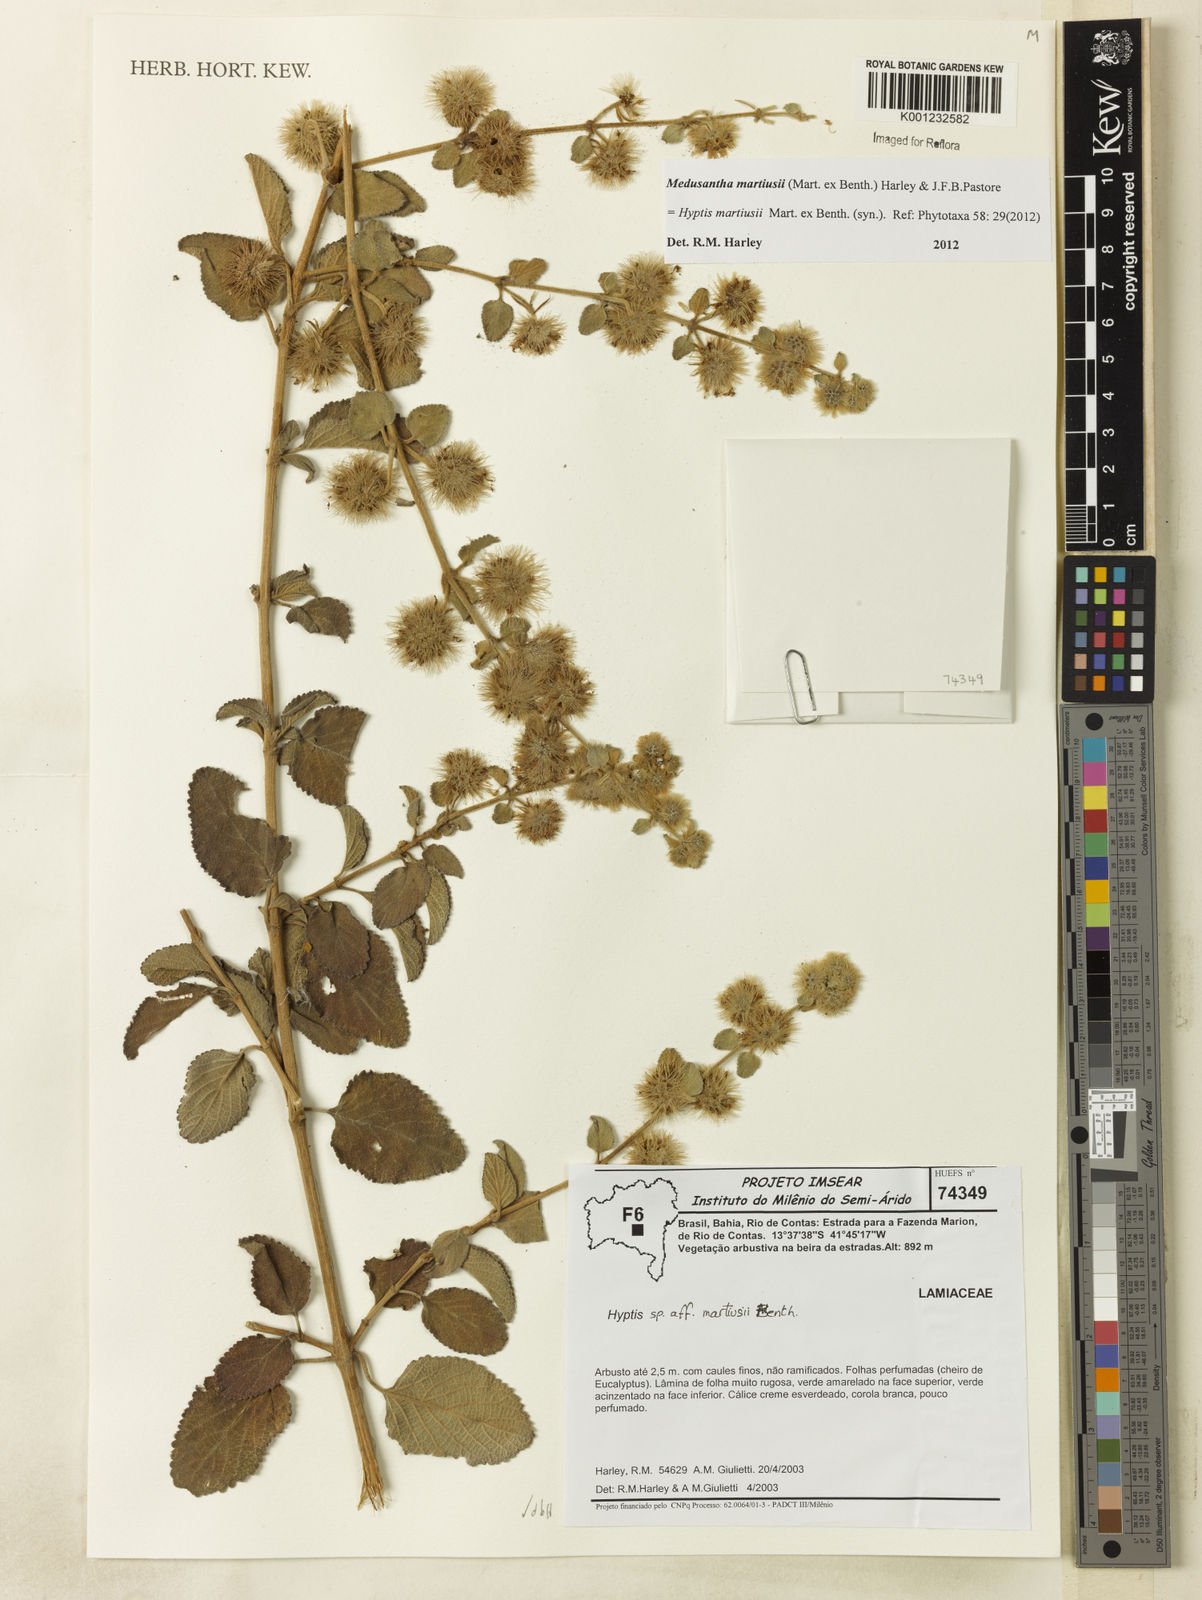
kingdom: Plantae
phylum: Tracheophyta
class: Magnoliopsida
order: Lamiales
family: Lamiaceae
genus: Medusantha
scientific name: Medusantha martiusii
